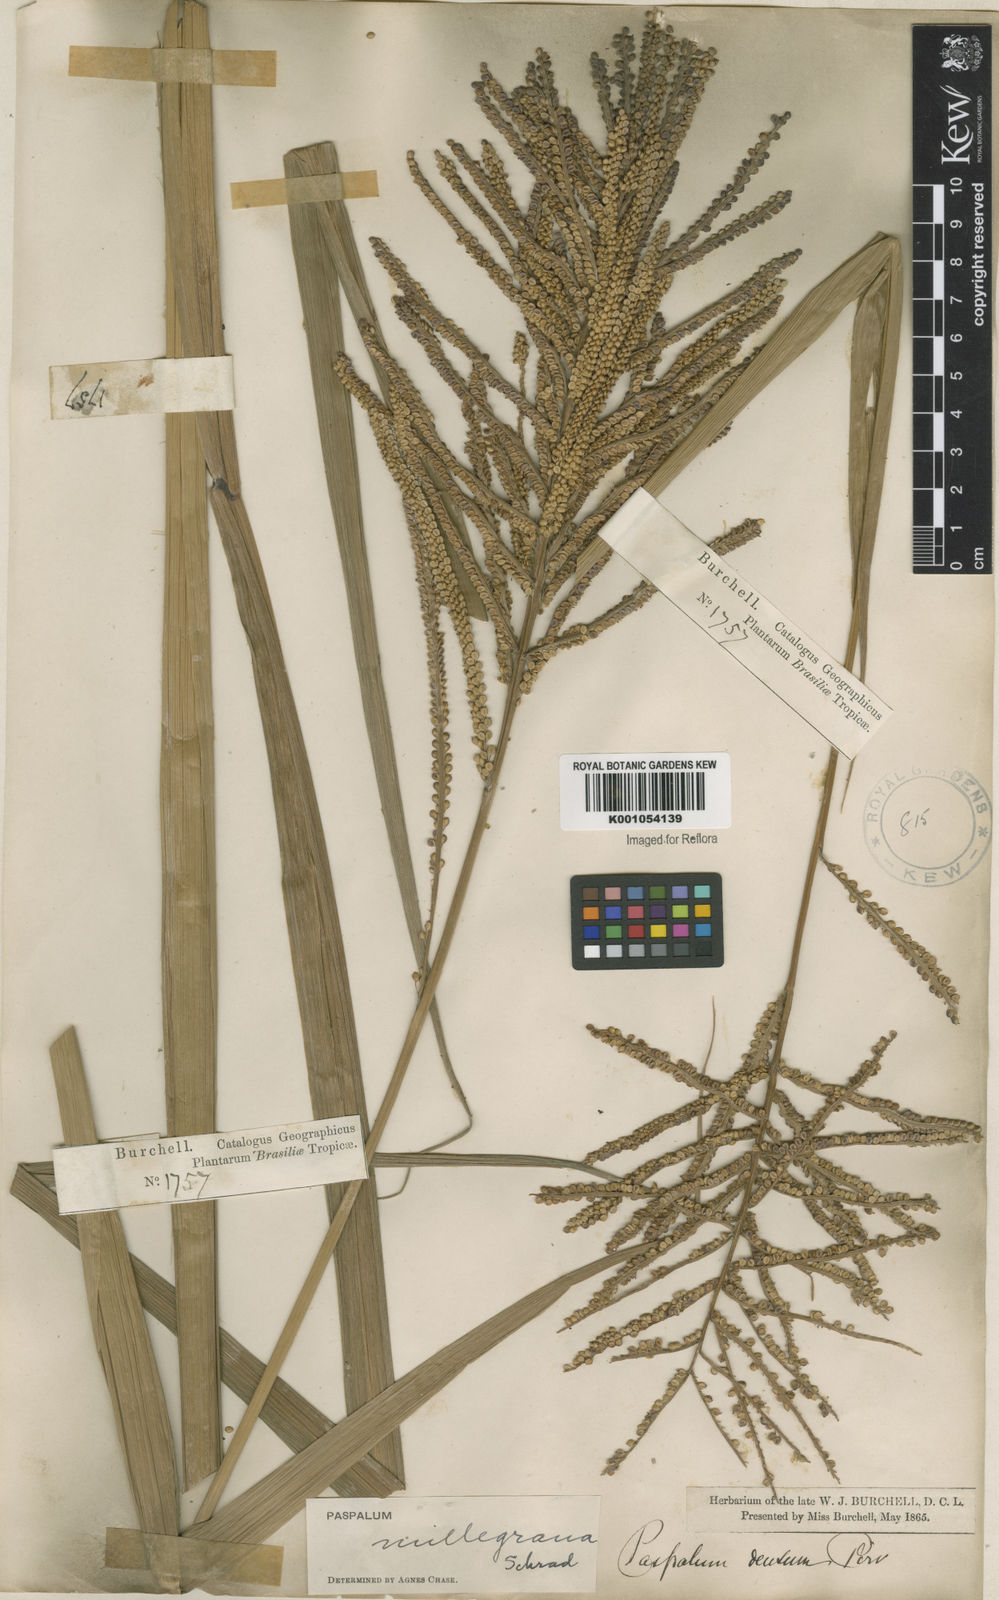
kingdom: Plantae
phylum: Tracheophyta
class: Liliopsida
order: Poales
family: Poaceae
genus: Paspalum
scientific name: Paspalum
